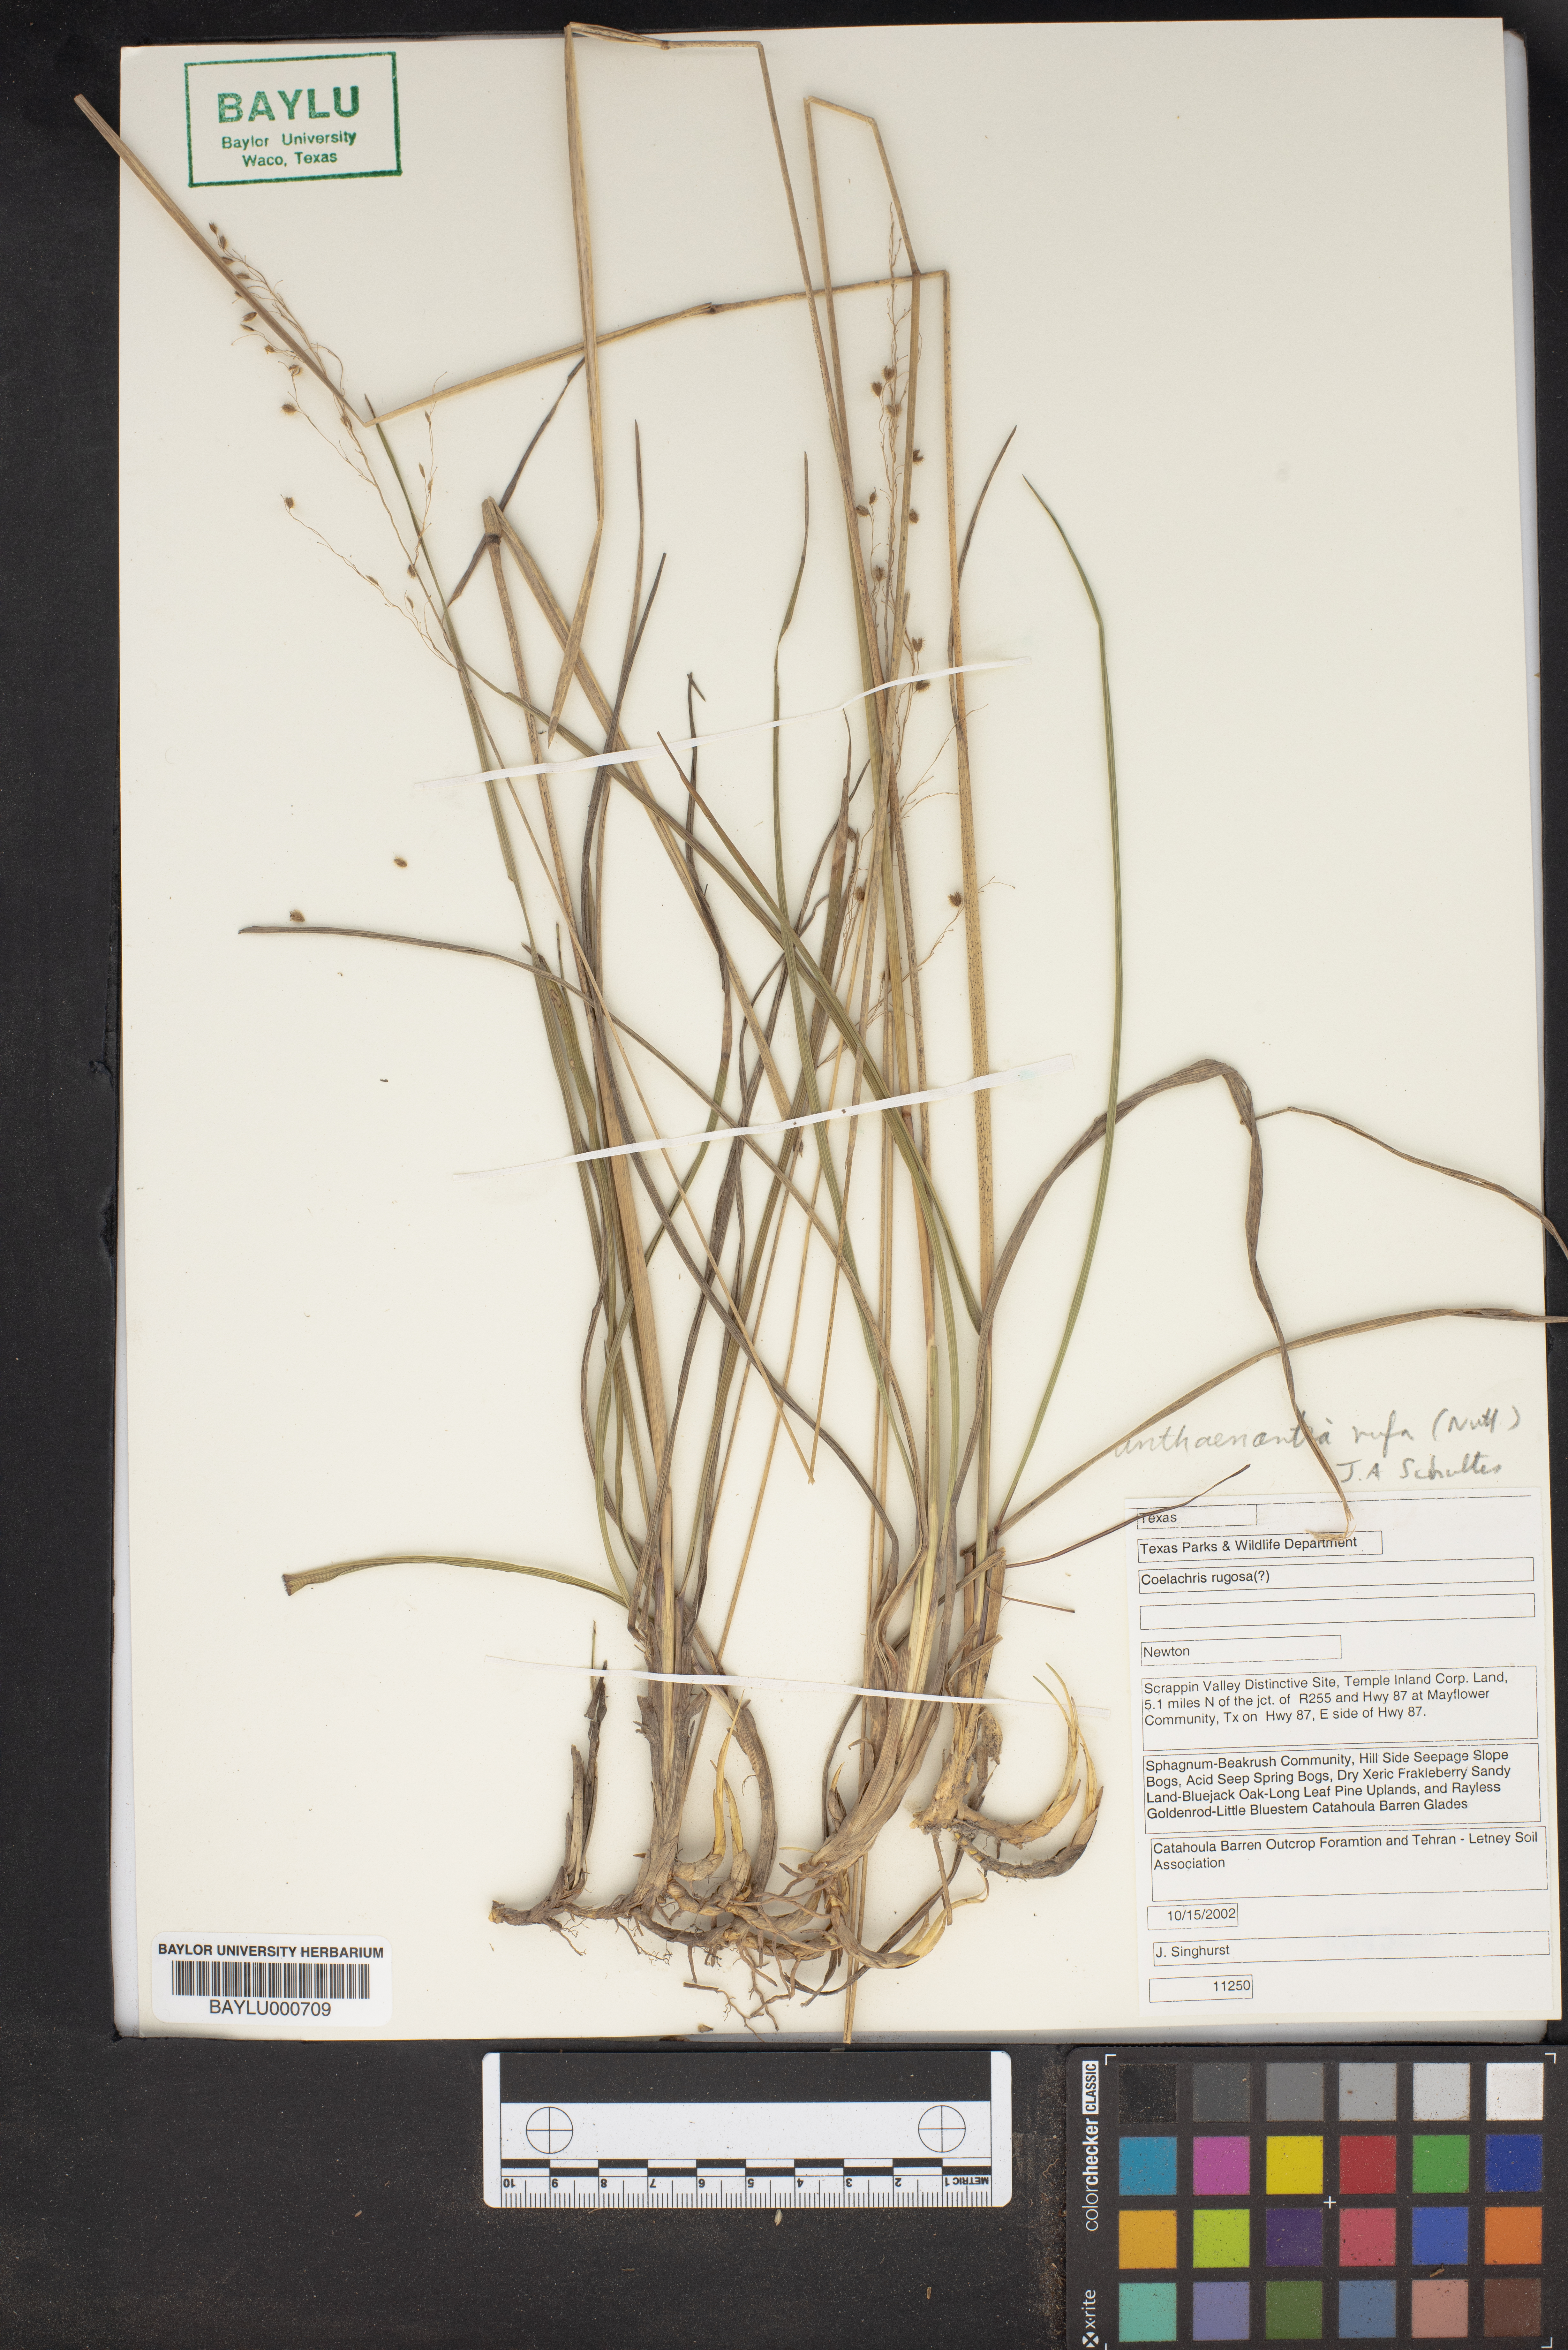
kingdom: Plantae
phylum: Tracheophyta
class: Liliopsida
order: Poales
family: Poaceae
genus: Anthenantia
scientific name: Anthenantia rufa
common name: Purple silkyscale
